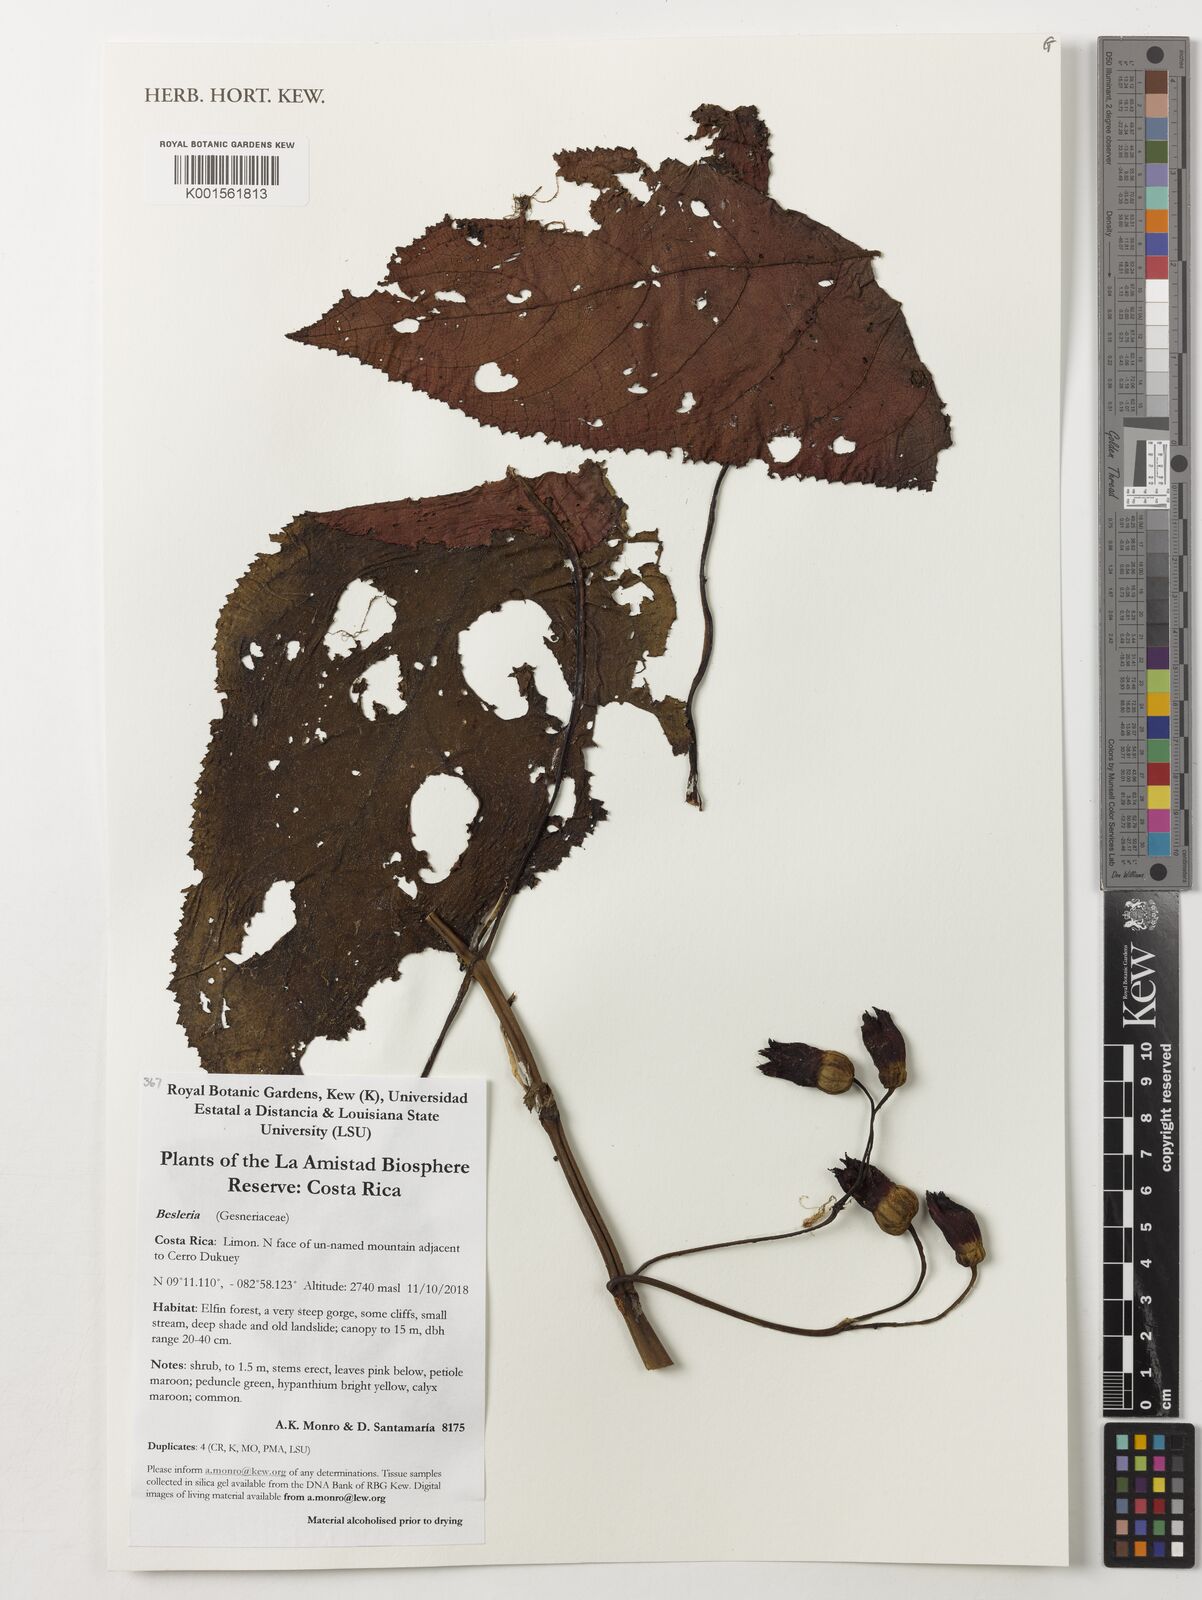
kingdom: Plantae
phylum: Tracheophyta
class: Magnoliopsida
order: Lamiales
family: Gesneriaceae
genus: Besleria
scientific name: Besleria
